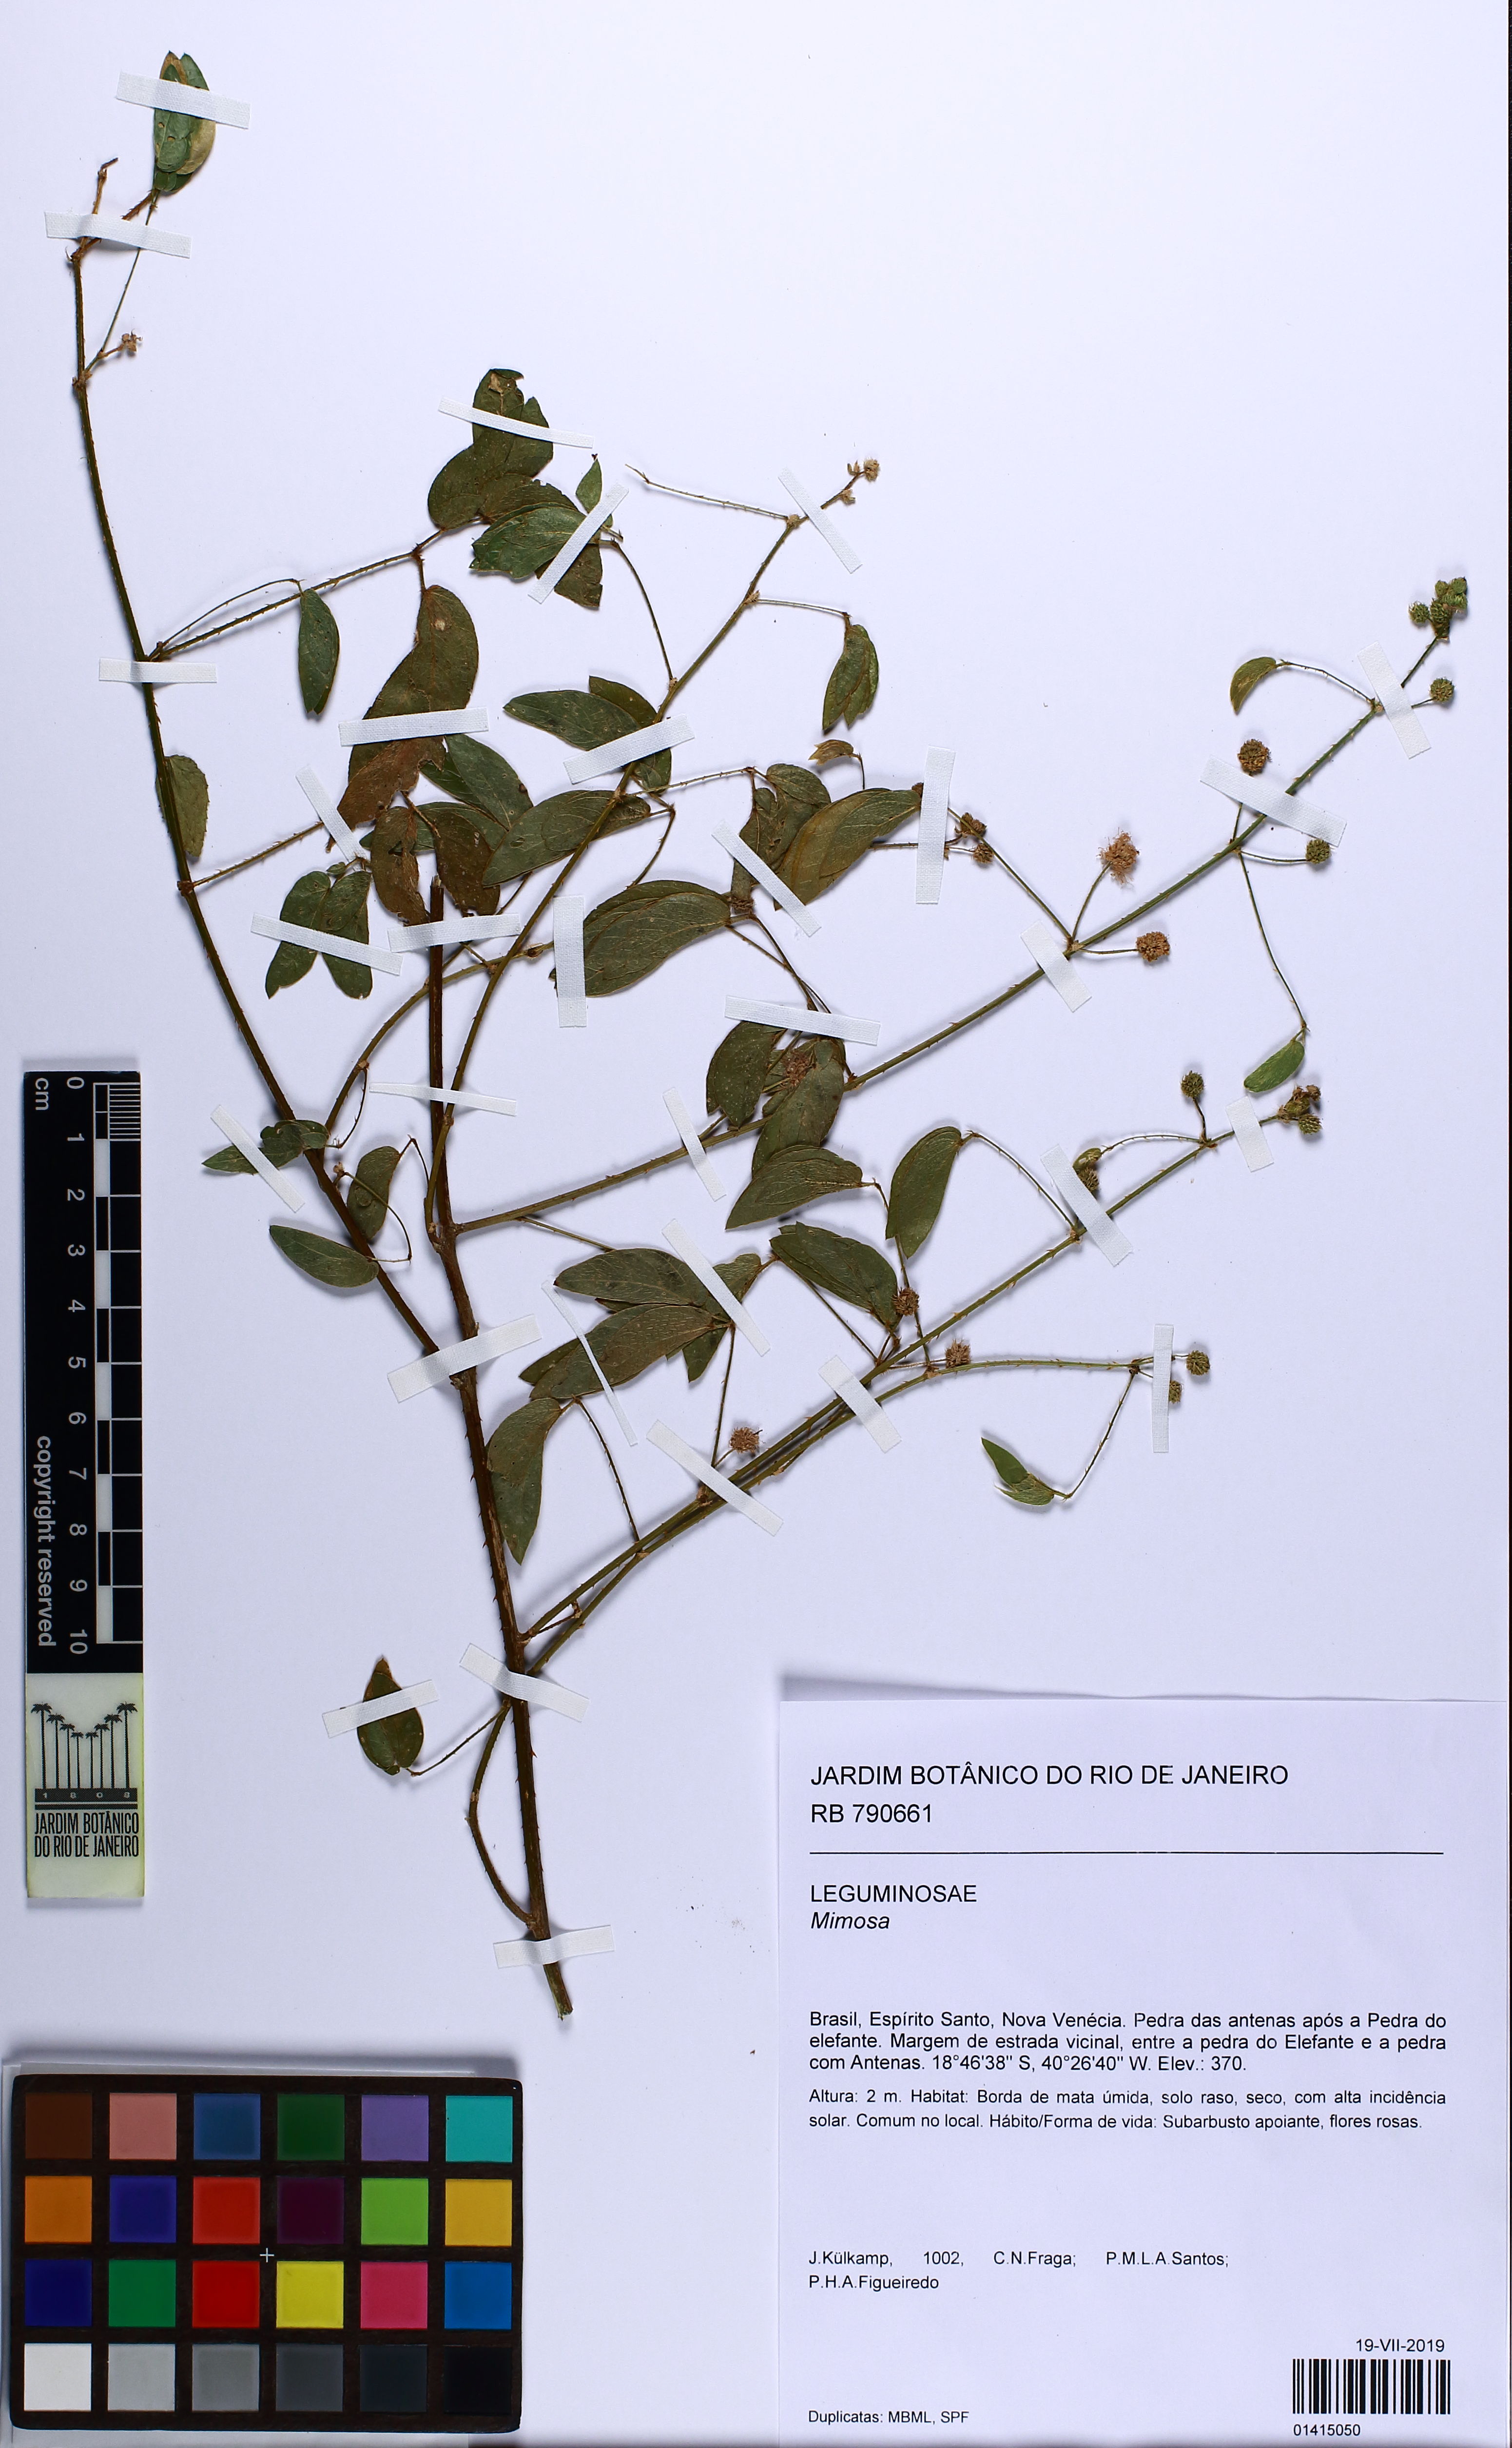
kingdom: Plantae
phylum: Tracheophyta
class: Magnoliopsida
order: Fabales
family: Fabaceae
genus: Mimosa
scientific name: Mimosa velloziana
